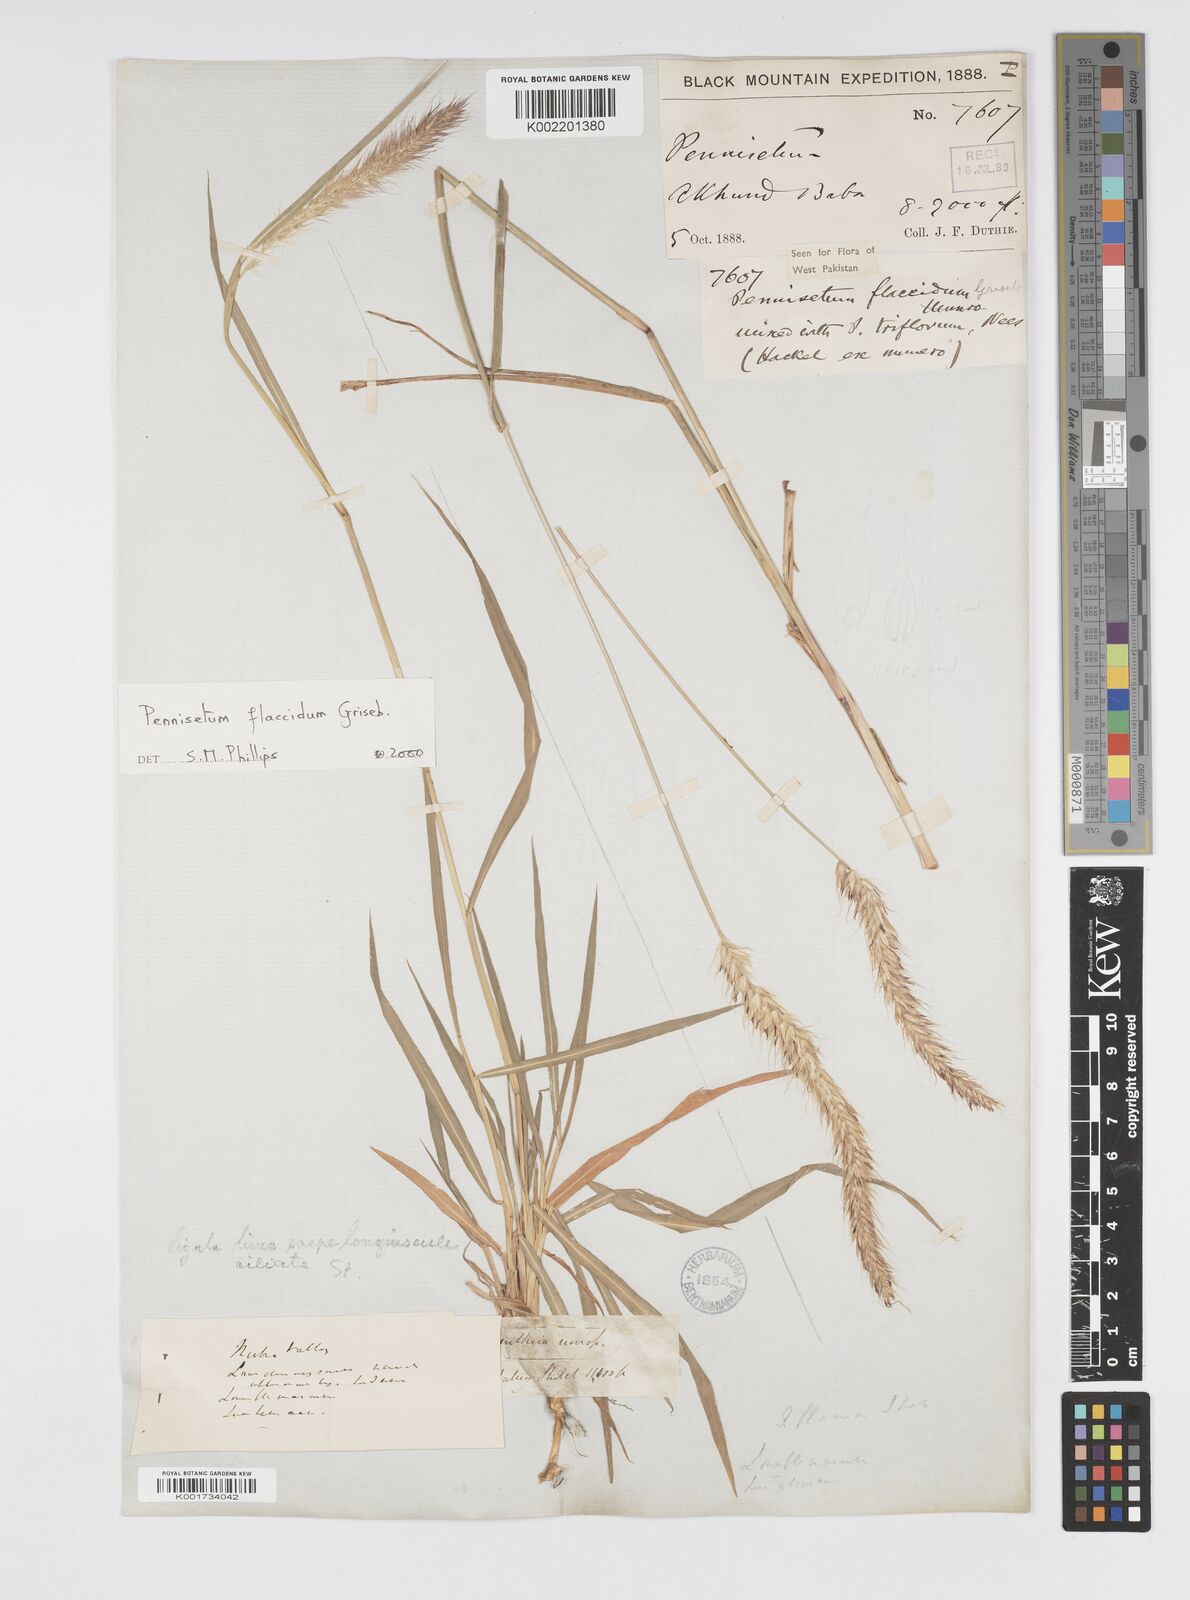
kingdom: Plantae
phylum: Tracheophyta
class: Liliopsida
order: Poales
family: Poaceae
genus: Cenchrus
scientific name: Cenchrus flaccidus
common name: Flaccid grass
